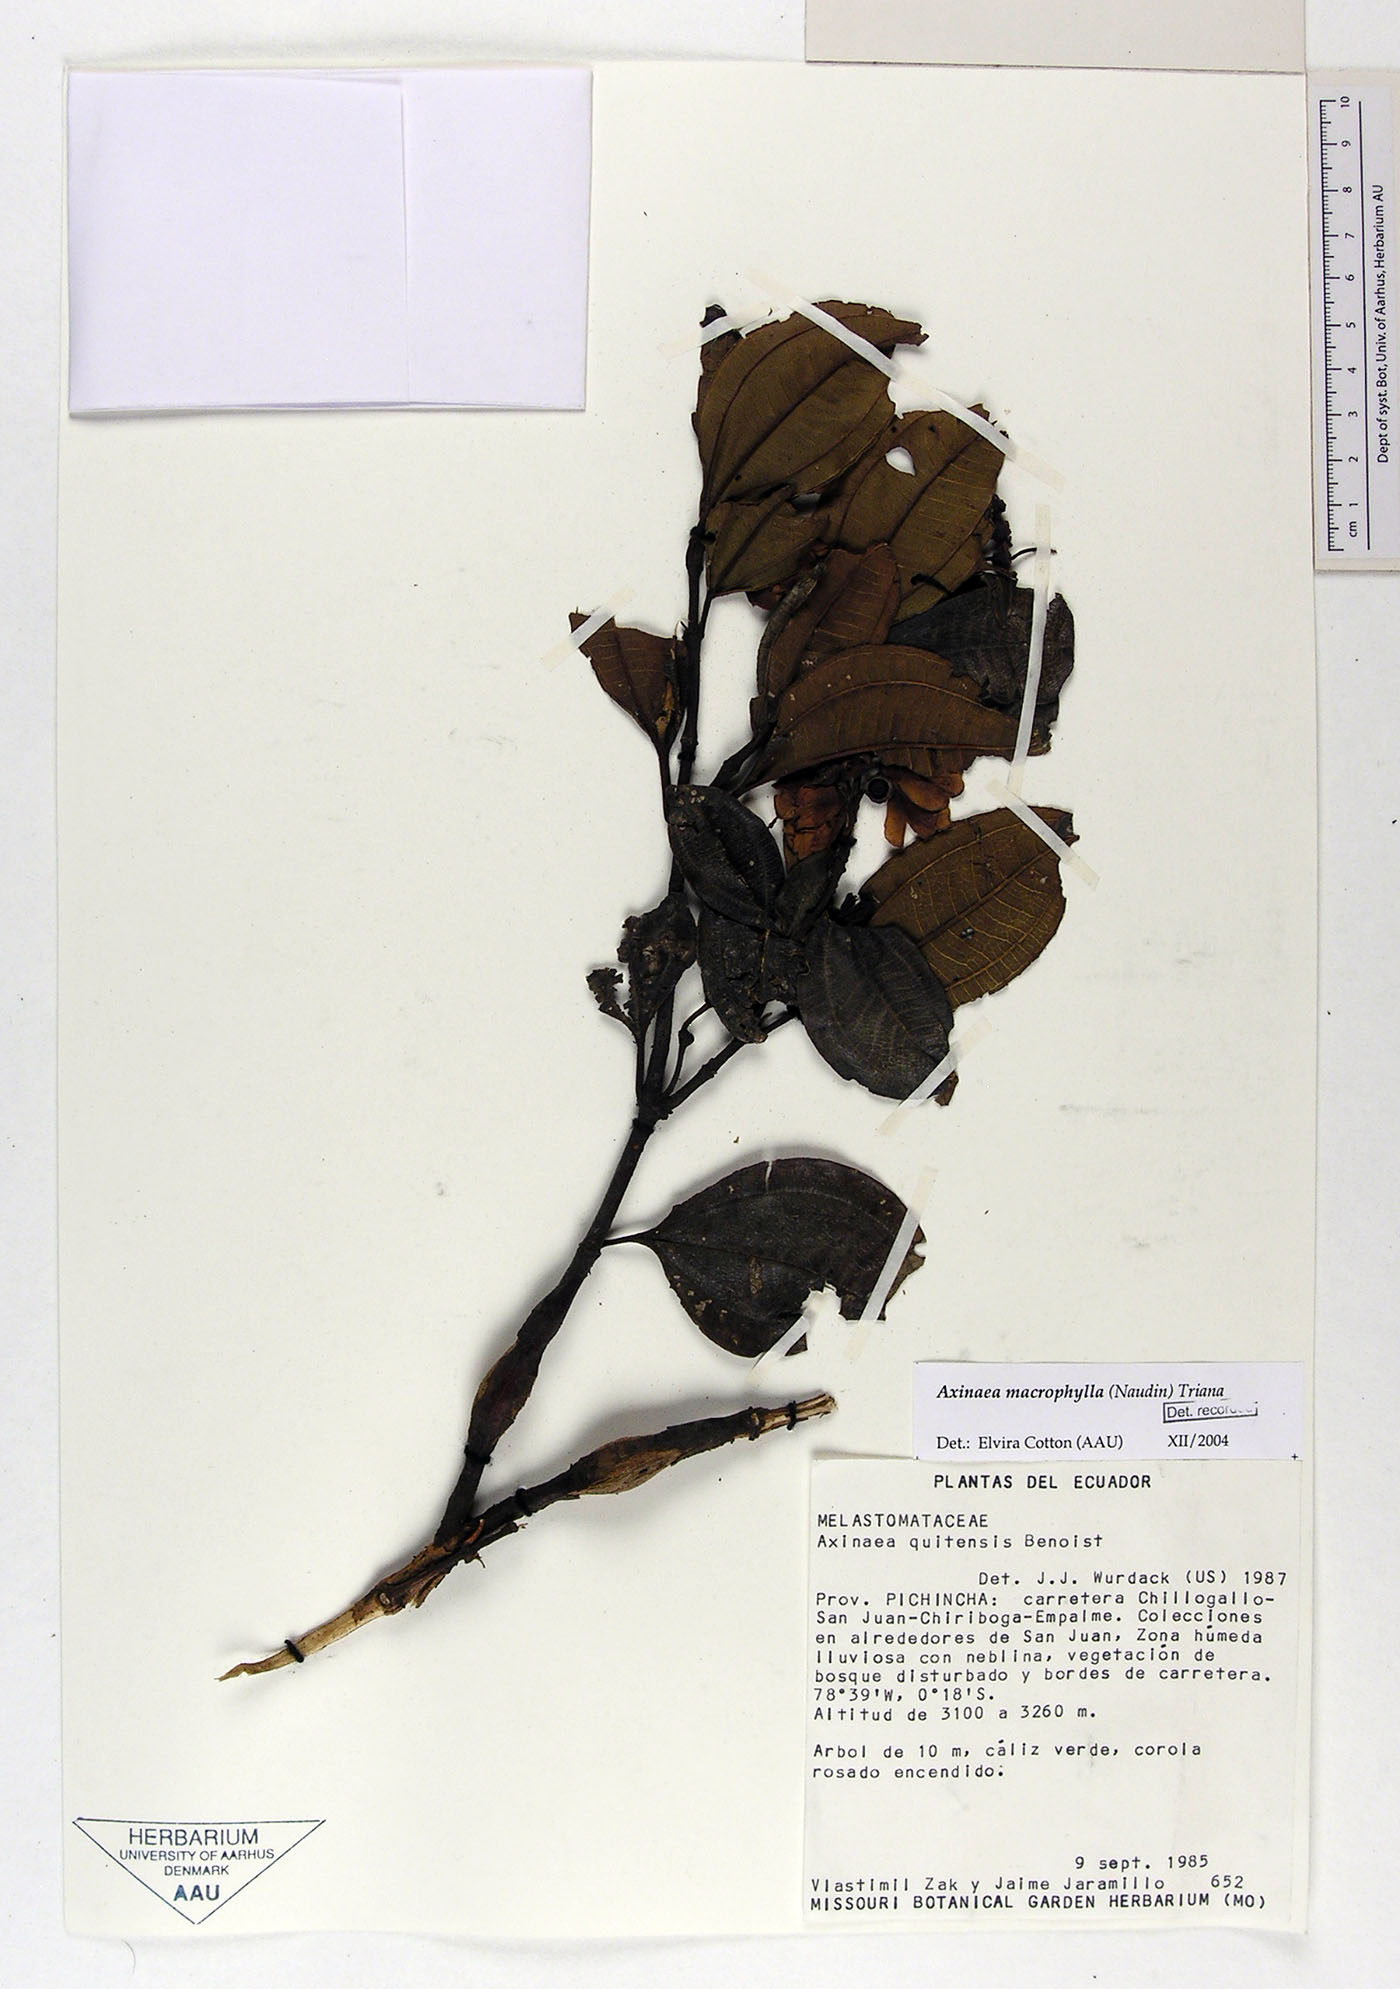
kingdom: Plantae
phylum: Tracheophyta
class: Magnoliopsida
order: Myrtales
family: Melastomataceae
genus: Axinaea
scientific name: Axinaea quitensis
